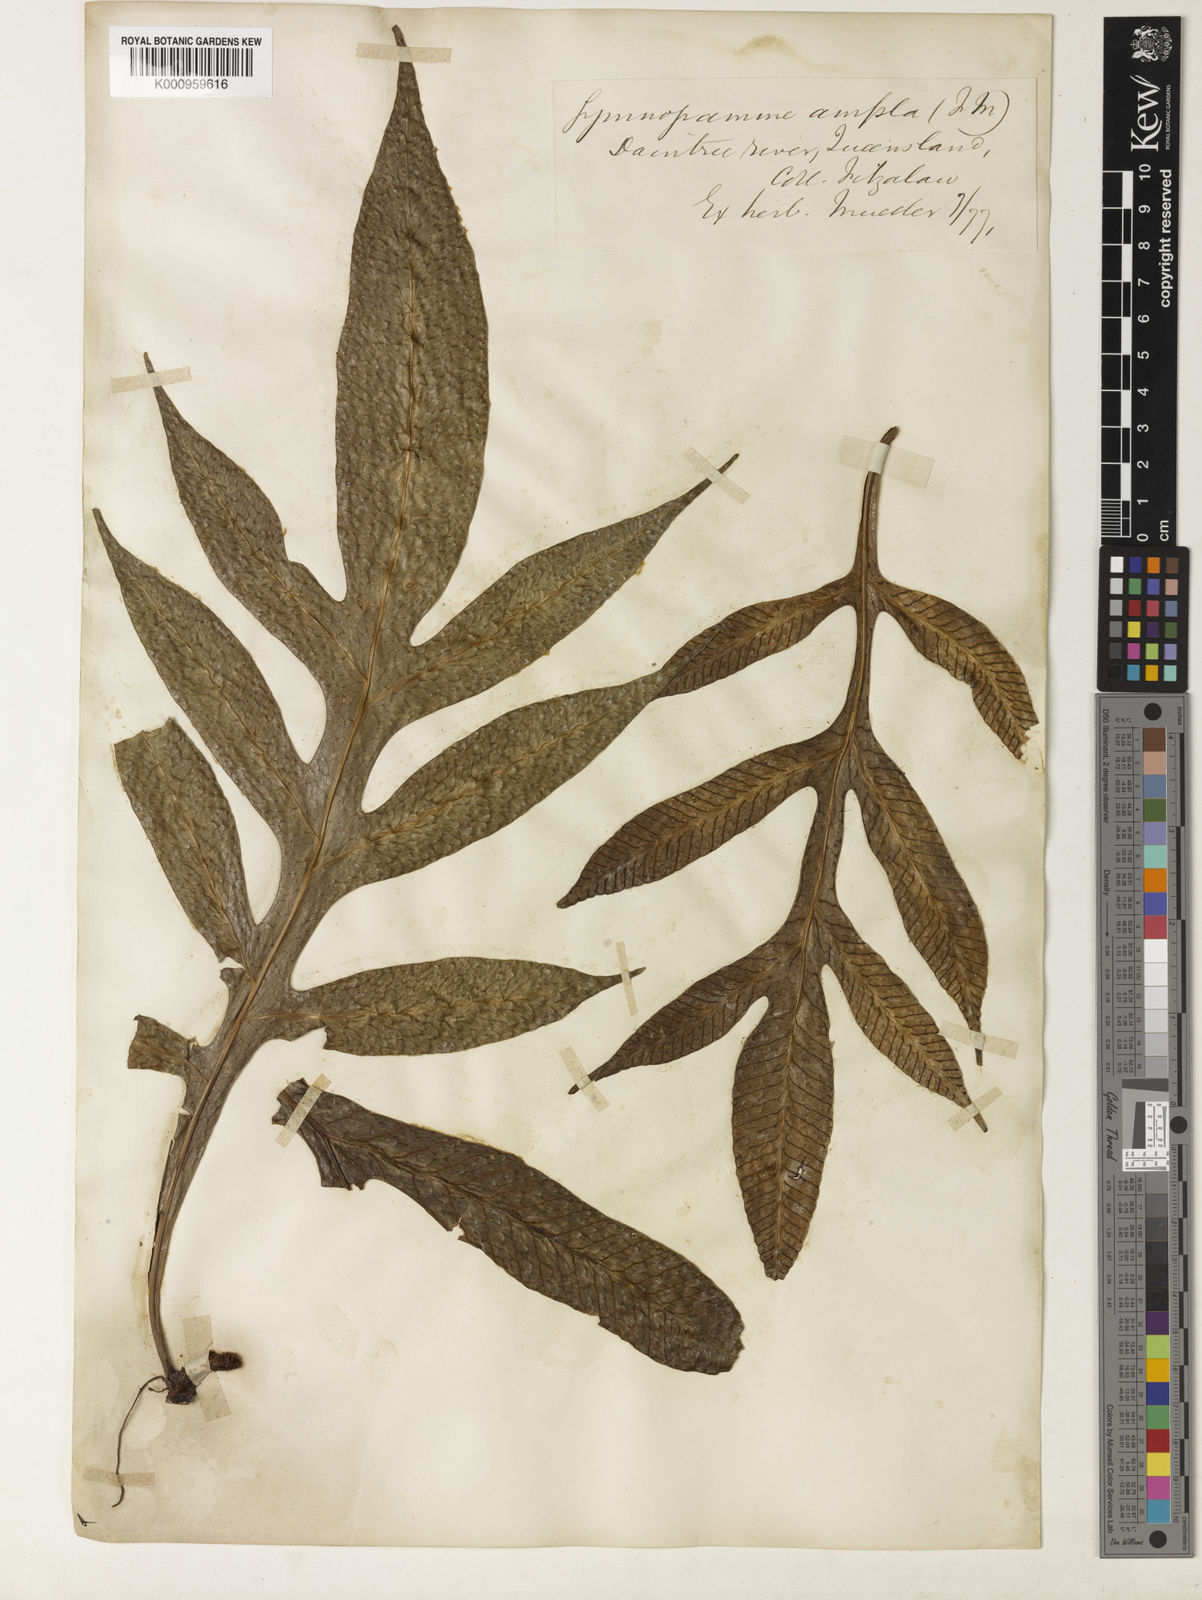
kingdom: Plantae
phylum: Tracheophyta
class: Polypodiopsida
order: Polypodiales
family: Polypodiaceae
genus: Lecanopteris
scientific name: Lecanopteris ampla
